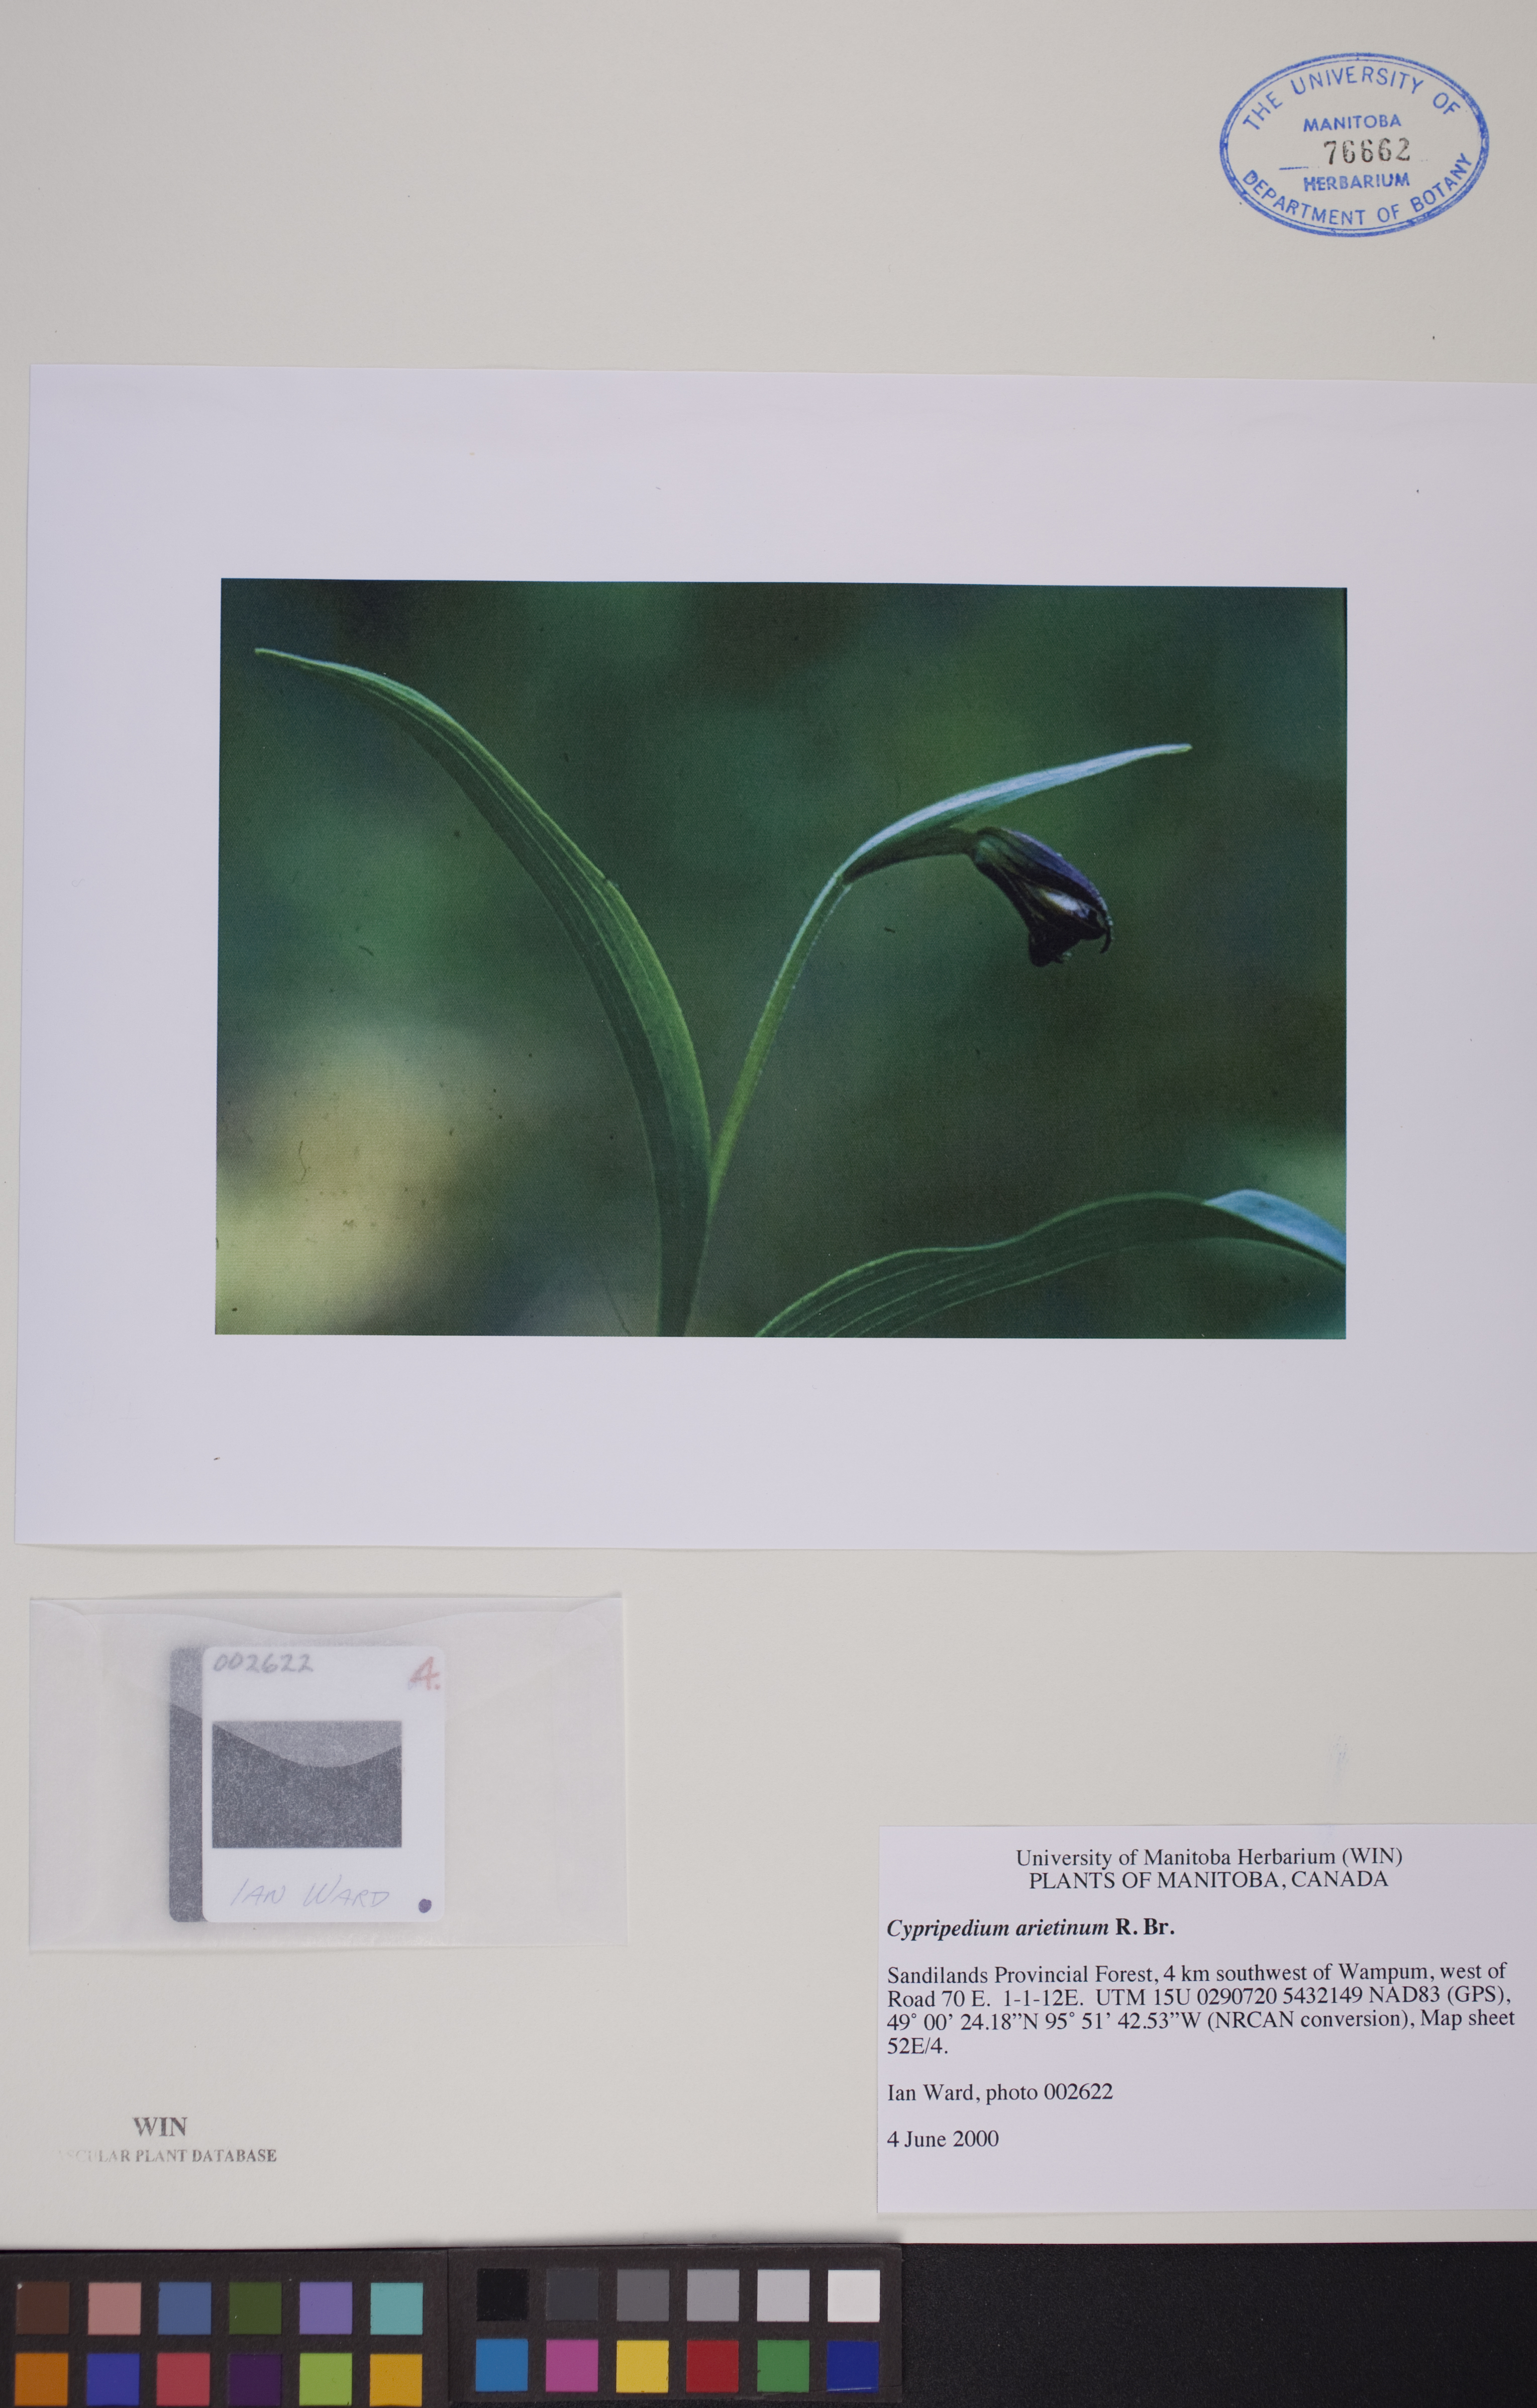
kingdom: Plantae
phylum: Tracheophyta
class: Liliopsida
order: Asparagales
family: Orchidaceae
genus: Cypripedium
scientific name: Cypripedium arietinum
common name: Ram's-head
